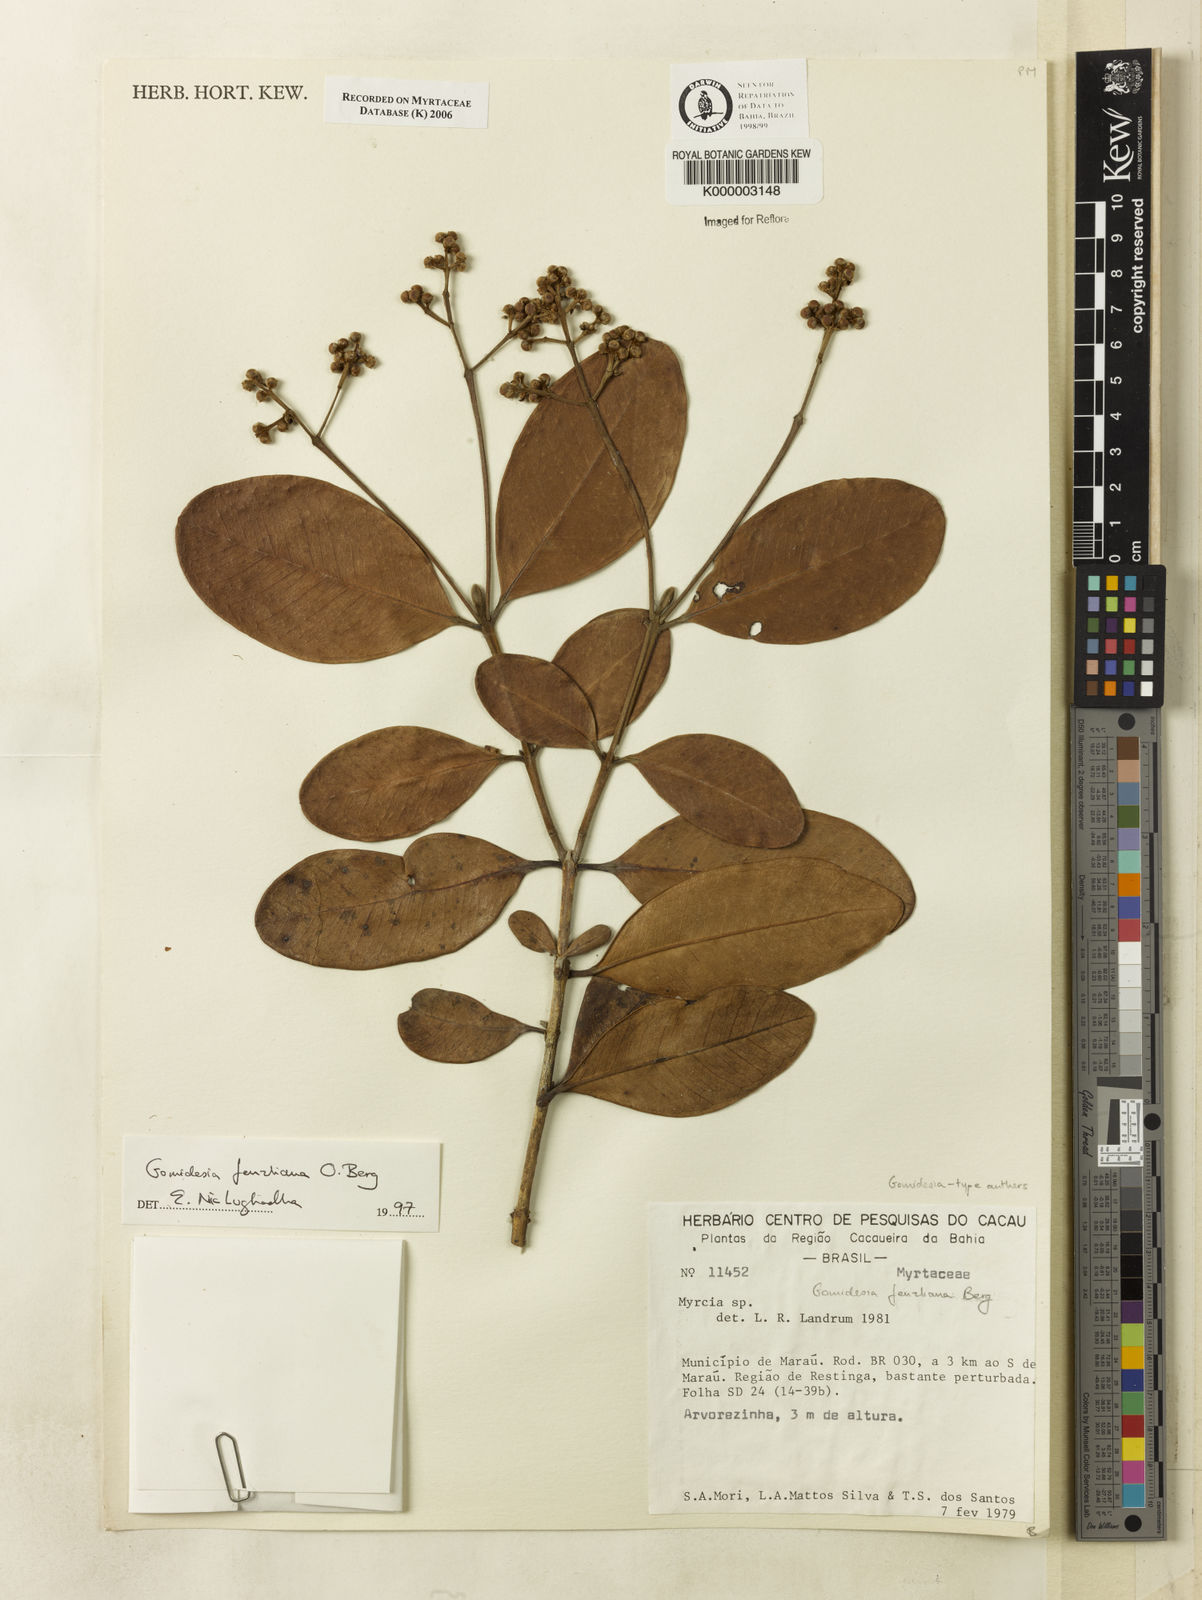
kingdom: Plantae
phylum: Tracheophyta
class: Magnoliopsida
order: Myrtales
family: Myrtaceae
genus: Myrcia
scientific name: Myrcia ilheosensis
